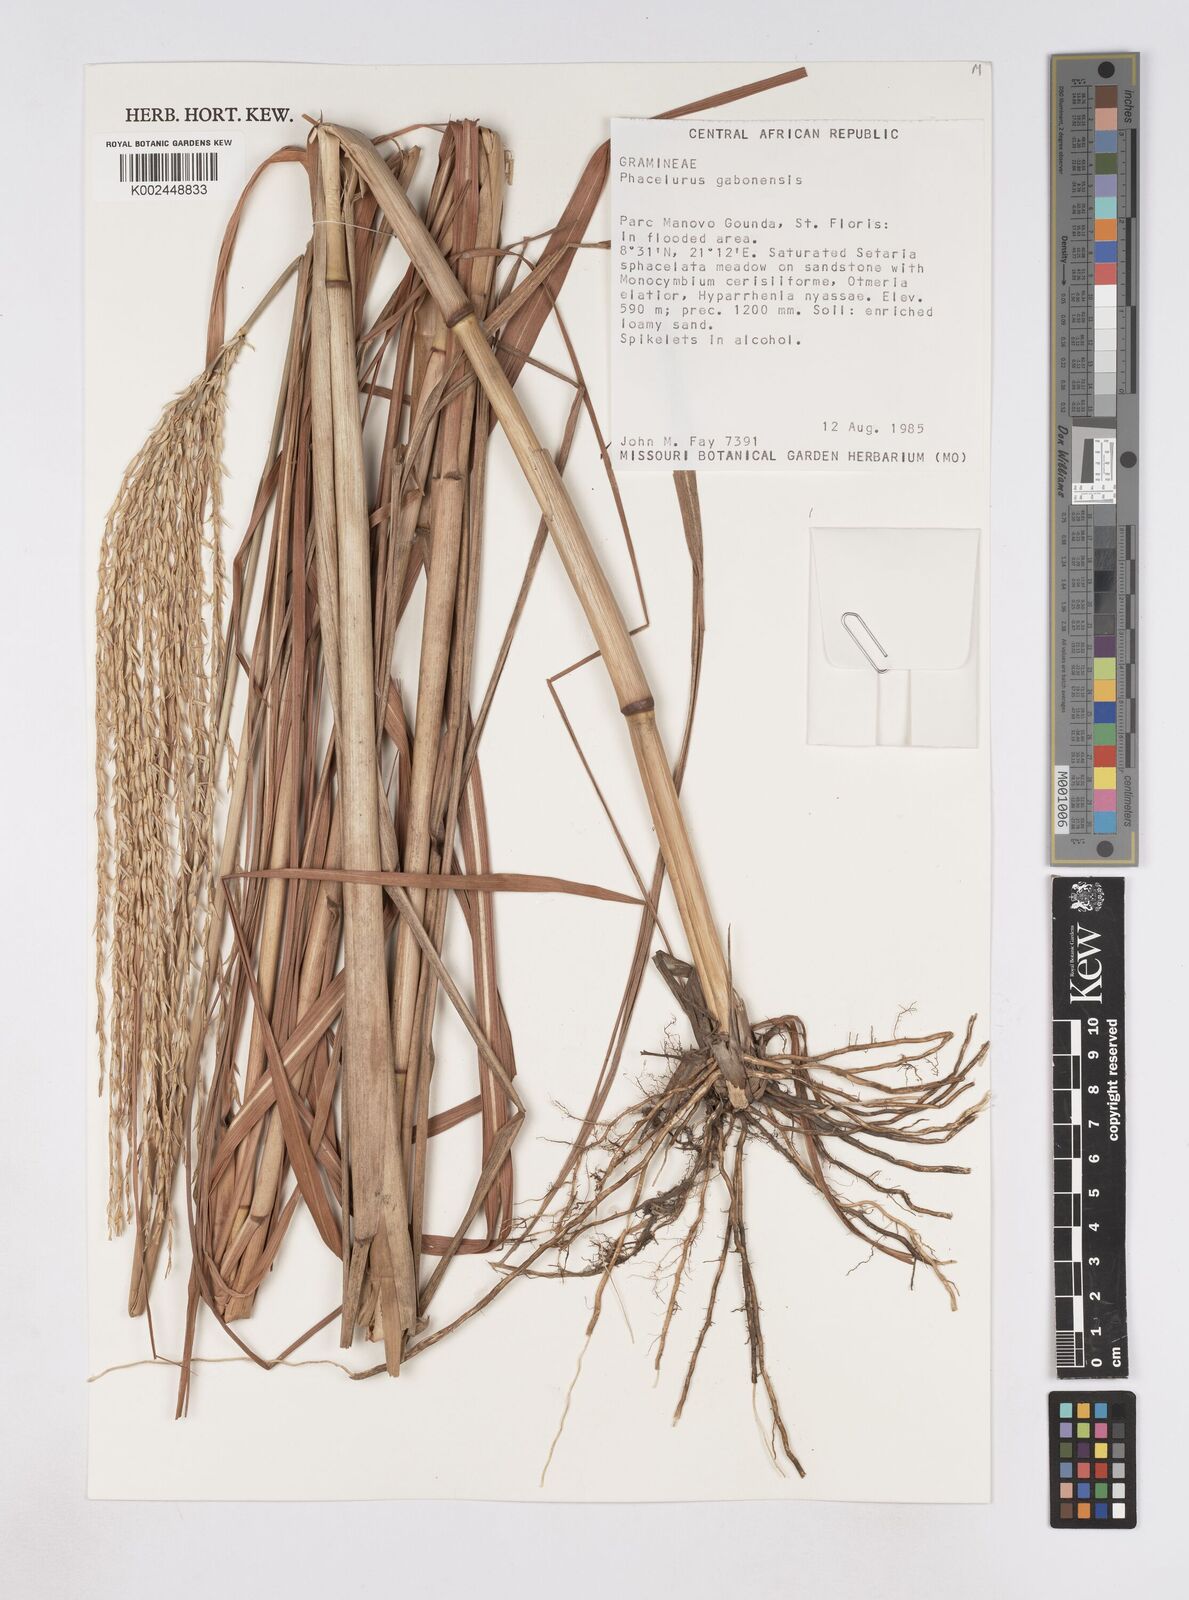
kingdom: Plantae
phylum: Tracheophyta
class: Liliopsida
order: Poales
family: Poaceae
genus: Phacelurus
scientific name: Phacelurus gabonensis
